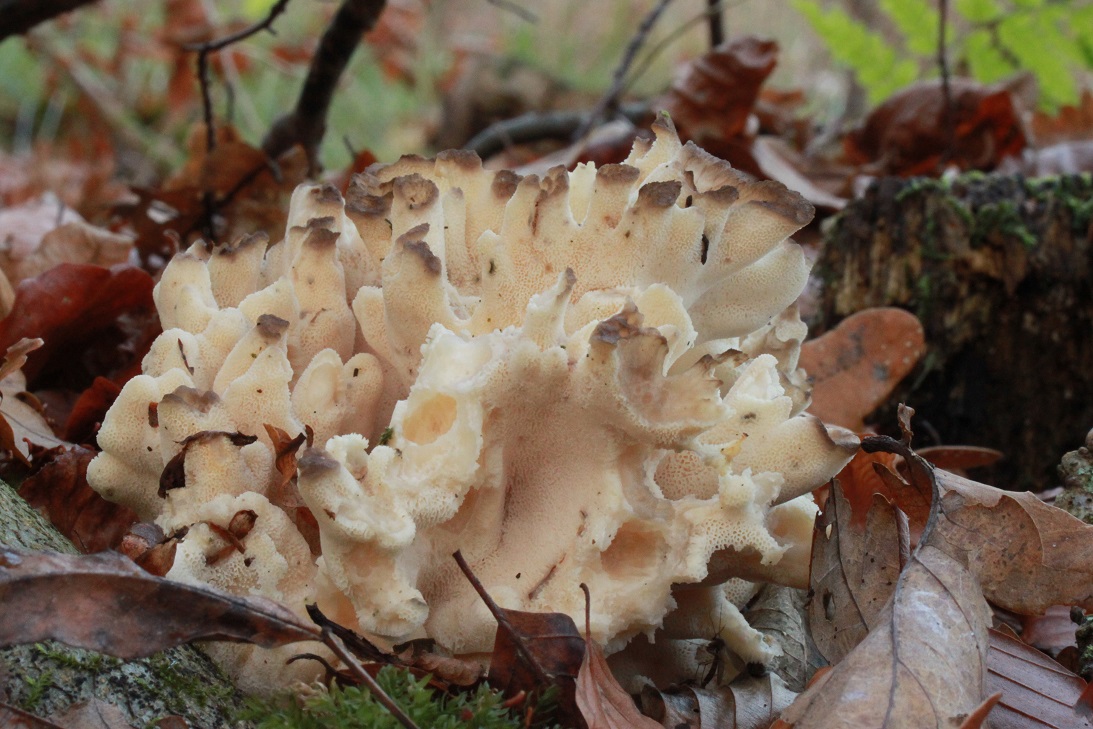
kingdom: Fungi
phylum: Basidiomycota
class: Agaricomycetes
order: Polyporales
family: Grifolaceae
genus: Grifola
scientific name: Grifola frondosa
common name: tueporesvamp
